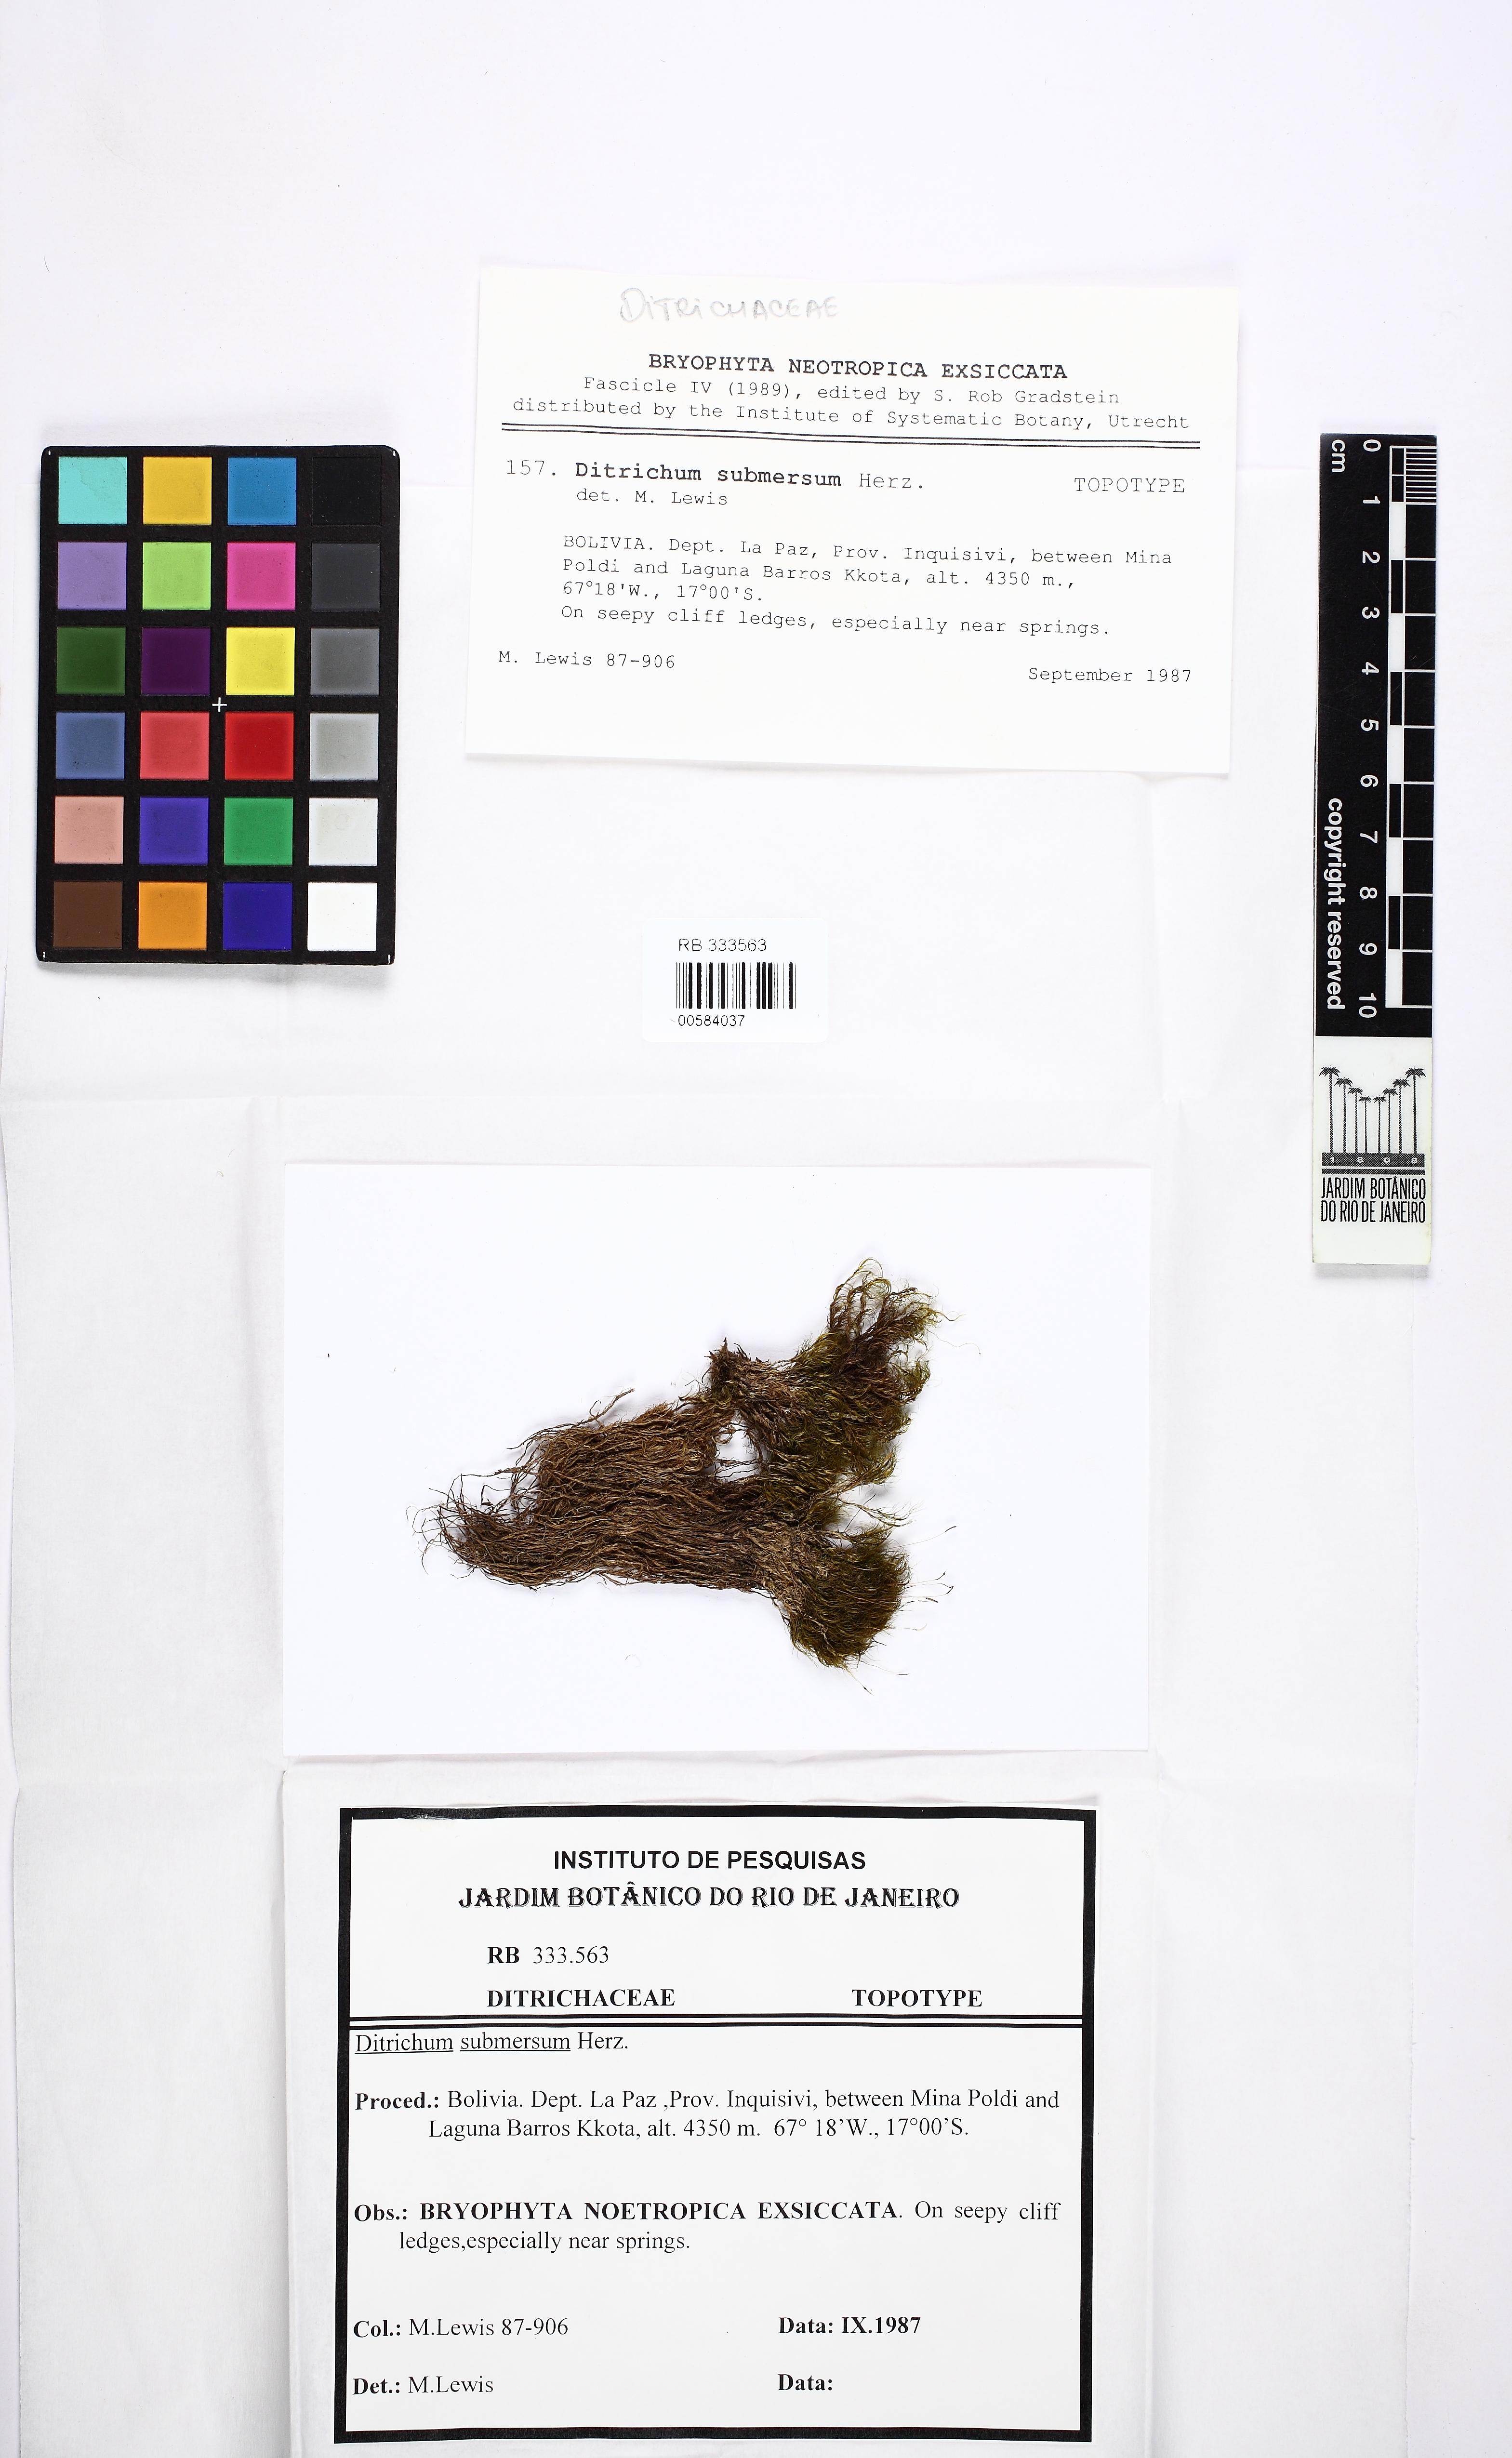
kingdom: Plantae
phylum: Bryophyta
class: Bryopsida
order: Dicranales
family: Ditrichaceae
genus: Ditrichum
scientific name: Ditrichum submersum
